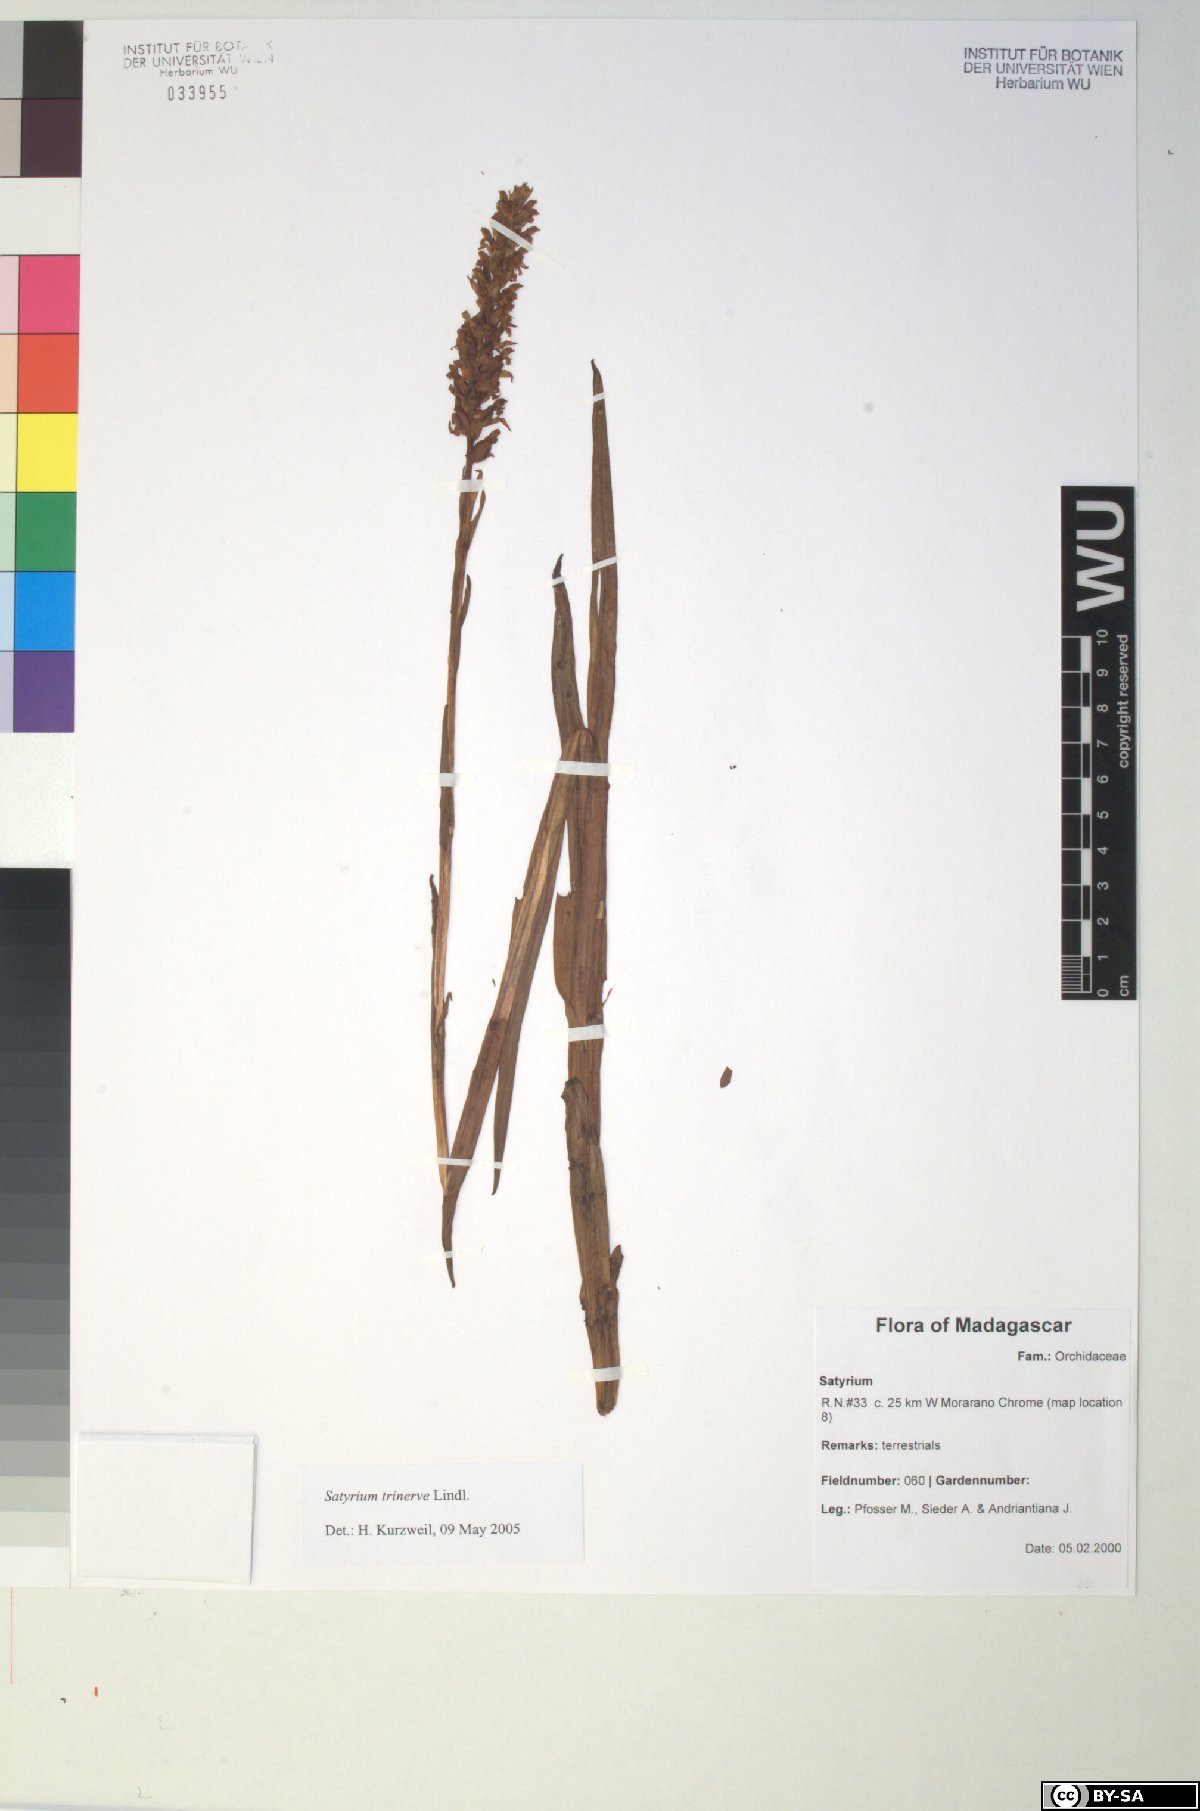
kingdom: Plantae
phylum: Tracheophyta
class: Liliopsida
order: Asparagales
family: Orchidaceae
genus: Satyrium
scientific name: Satyrium trinerve
